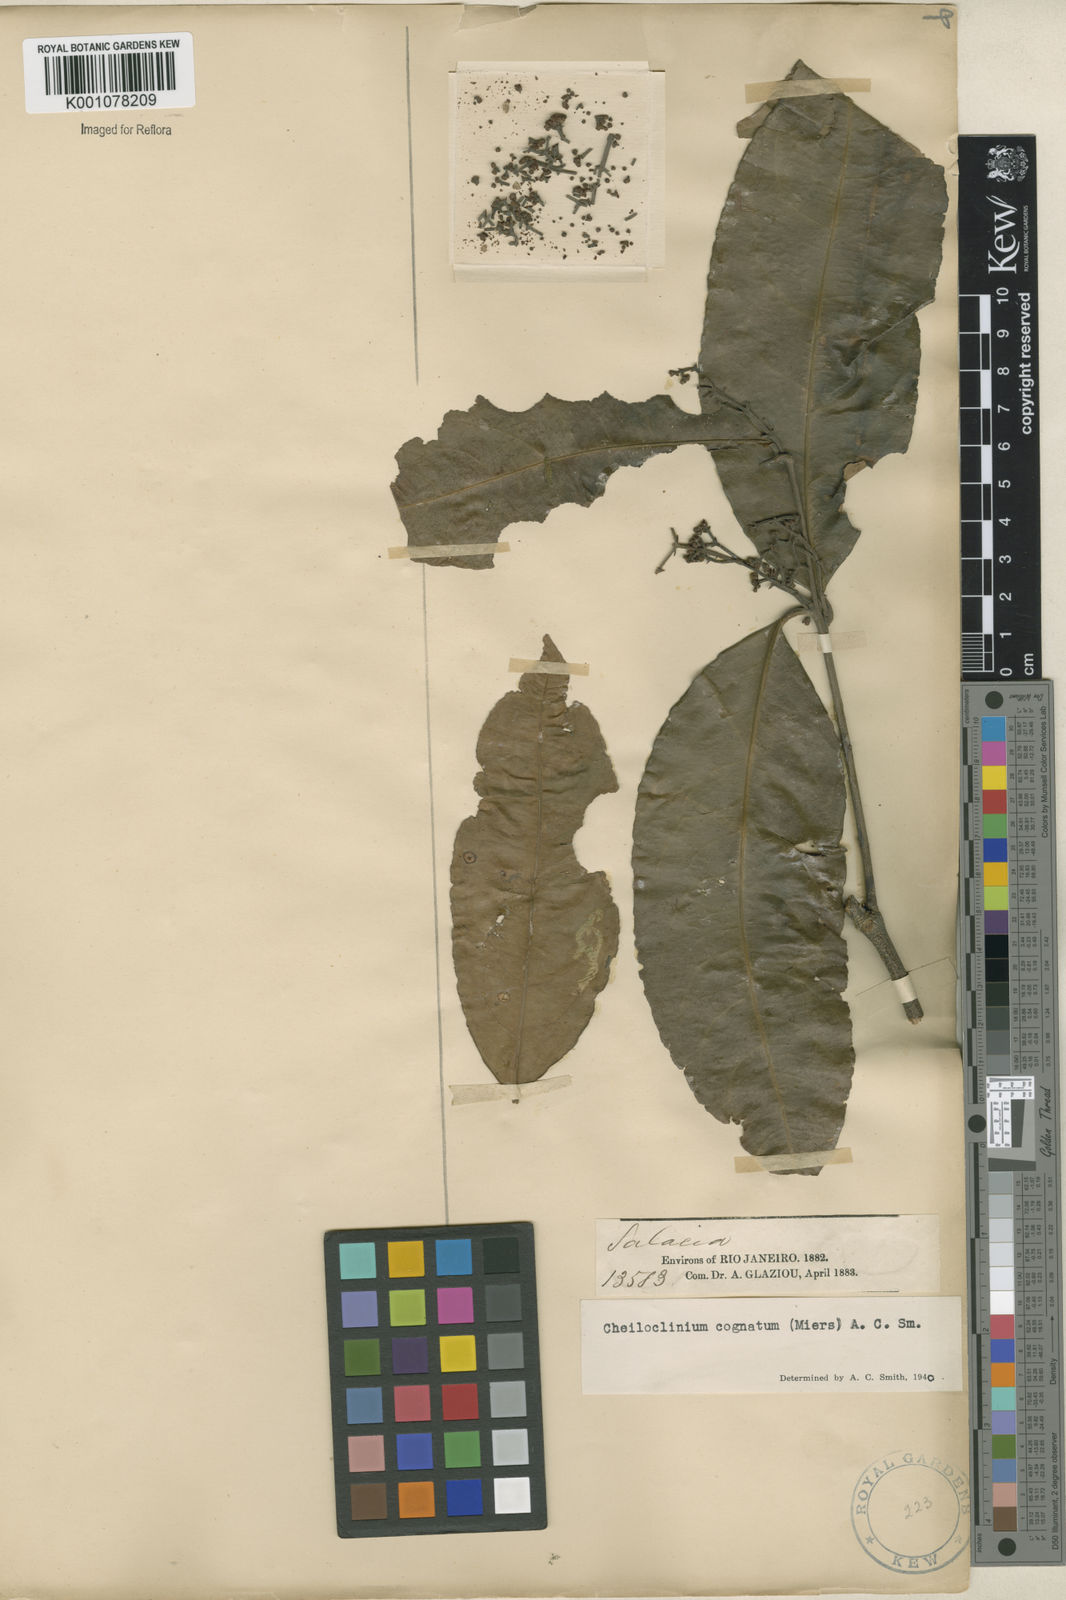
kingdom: Plantae
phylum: Tracheophyta
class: Magnoliopsida
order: Celastrales
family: Celastraceae
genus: Cheiloclinium
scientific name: Cheiloclinium cognatum
